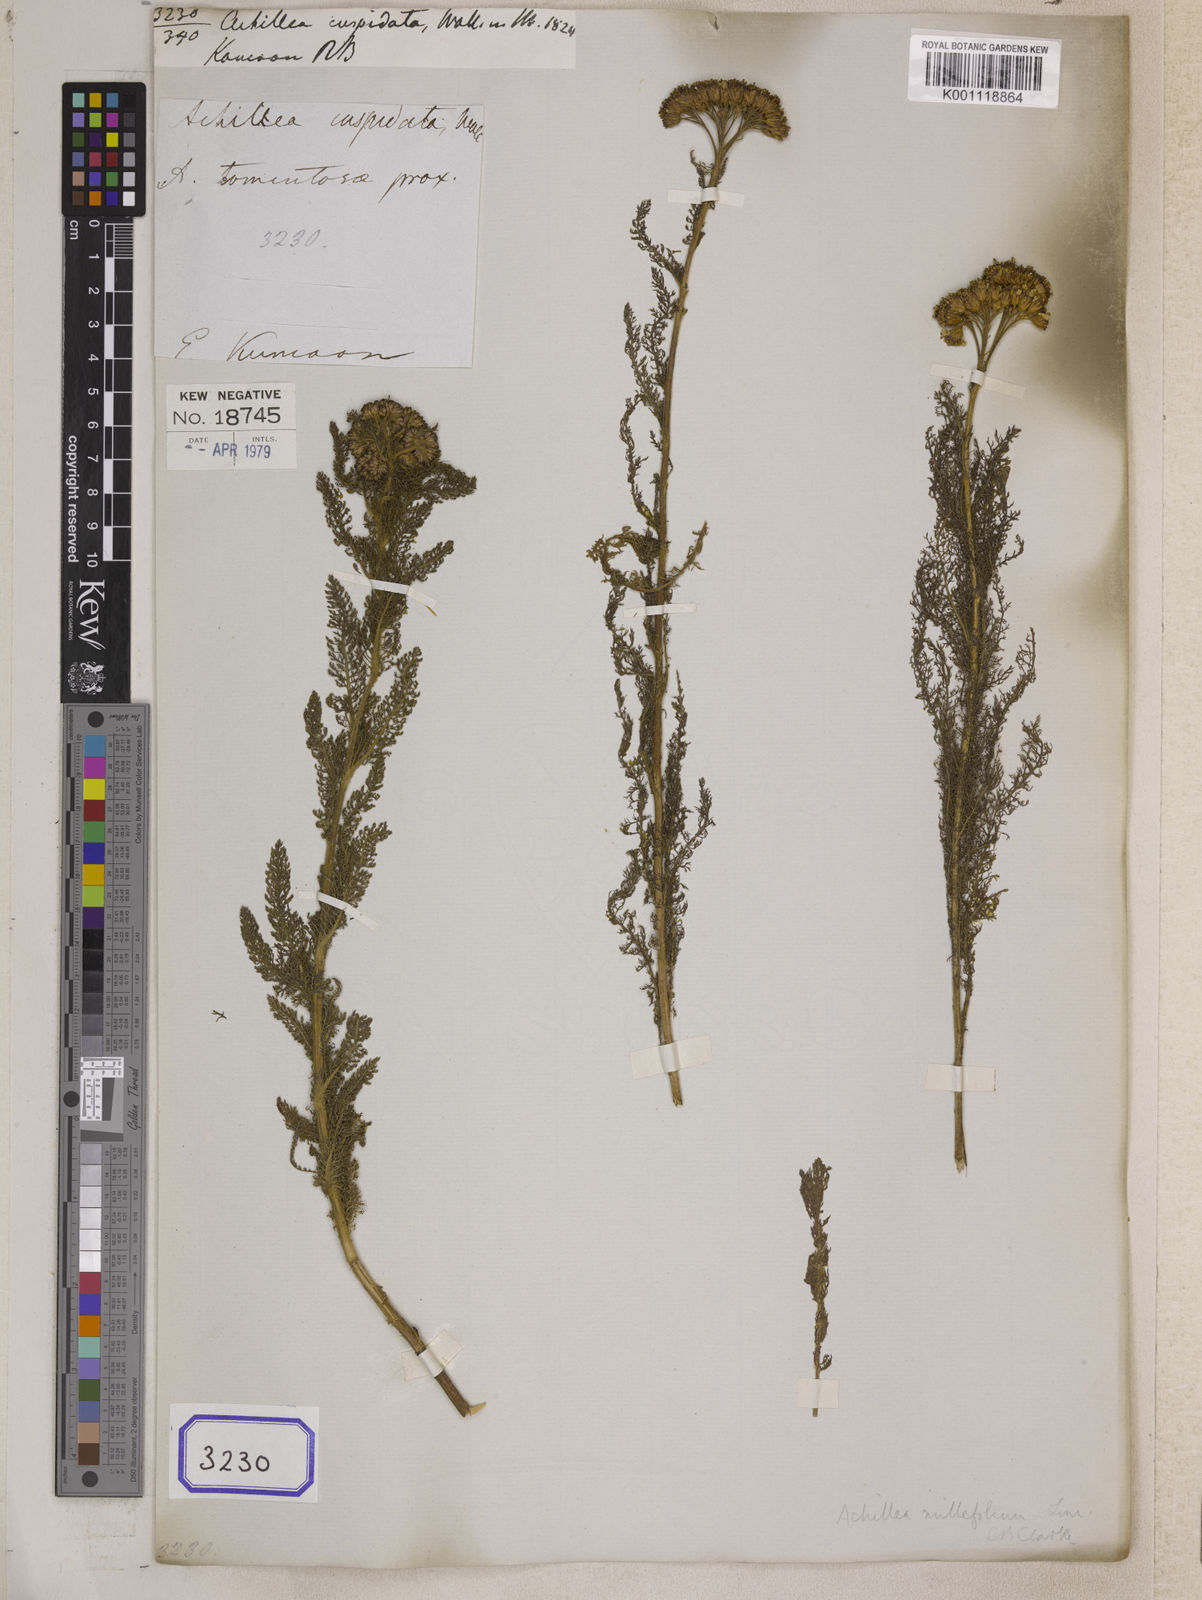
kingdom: Plantae
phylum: Tracheophyta
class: Magnoliopsida
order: Asterales
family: Asteraceae
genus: Achillea
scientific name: Achillea millefolium
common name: Yarrow
